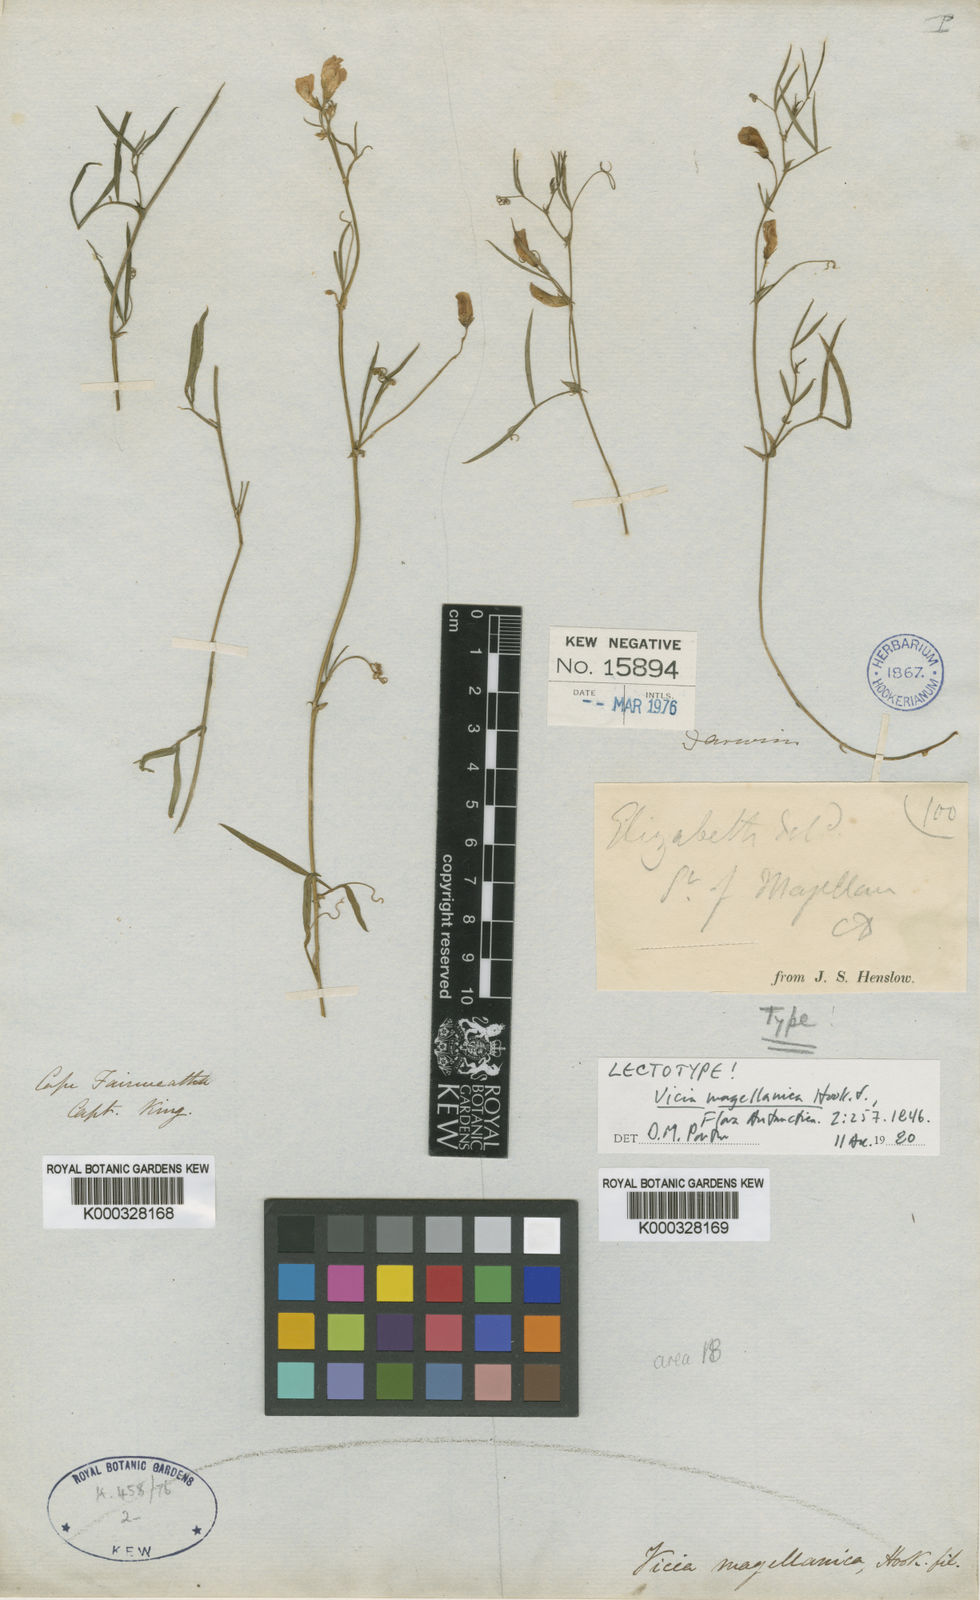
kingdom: Plantae
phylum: Tracheophyta
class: Magnoliopsida
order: Fabales
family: Fabaceae
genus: Vicia
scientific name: Vicia magellanica
